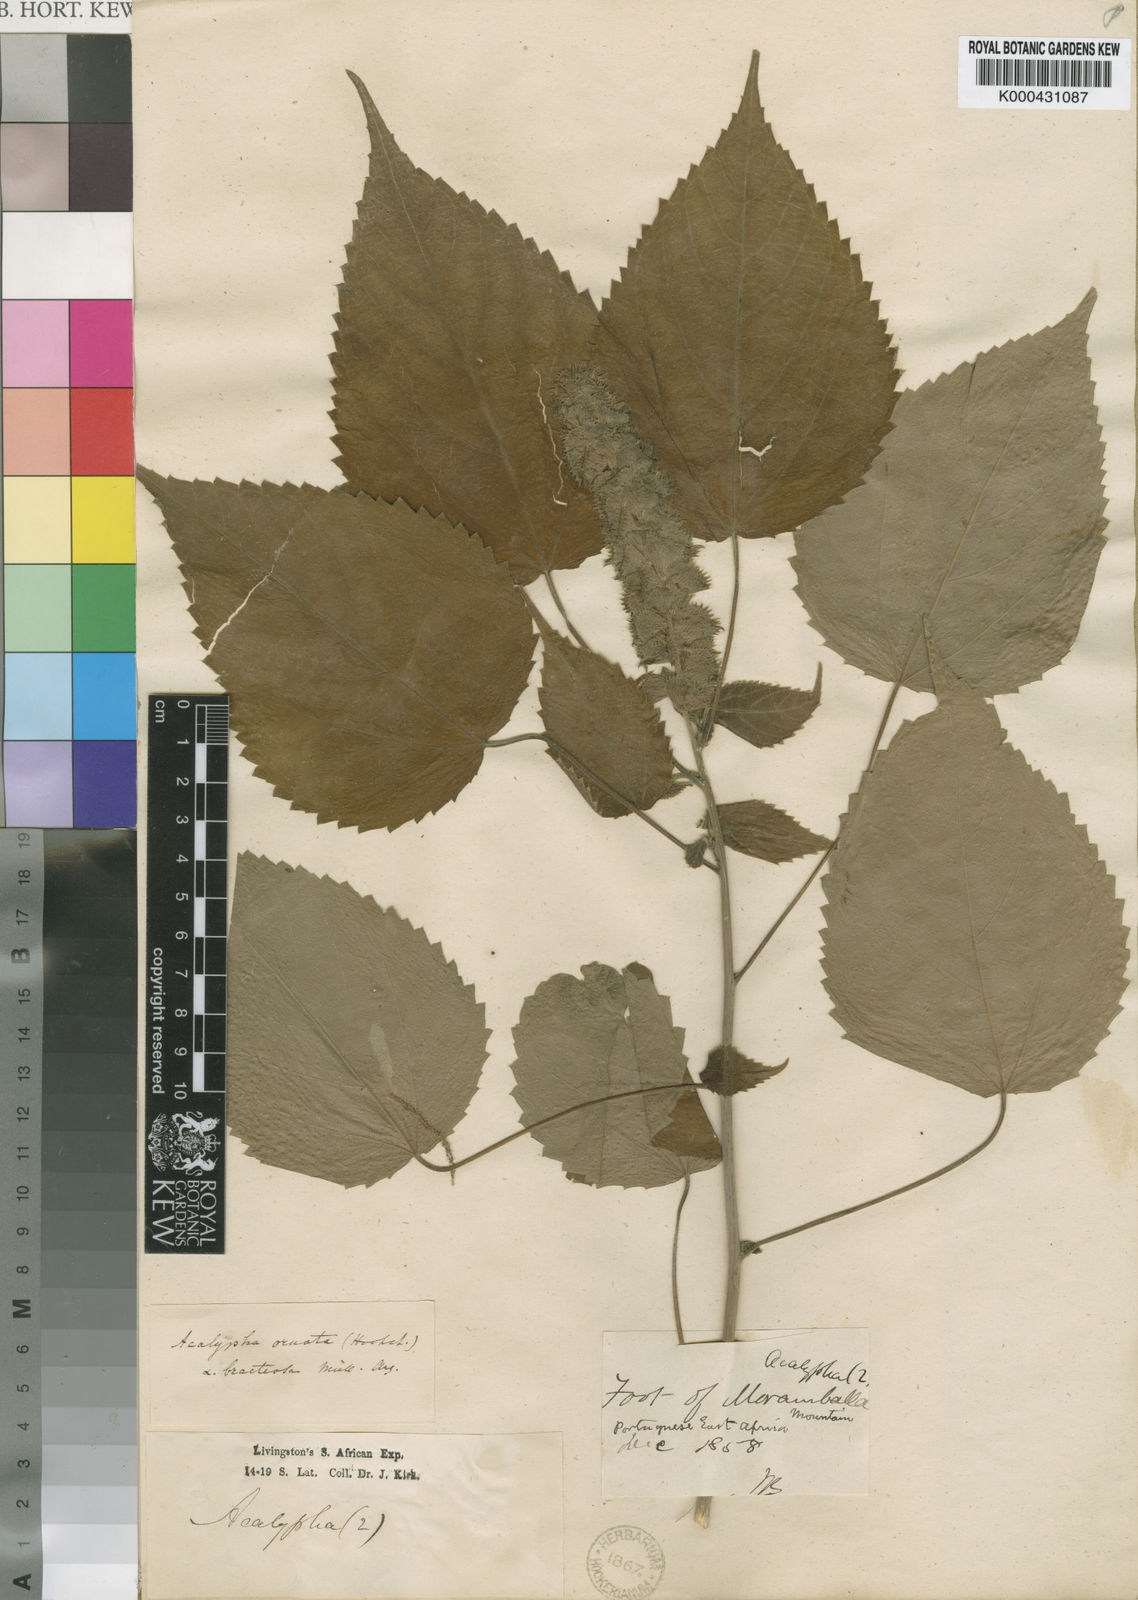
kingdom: Plantae
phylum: Tracheophyta
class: Magnoliopsida
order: Malpighiales
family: Euphorbiaceae
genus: Acalypha
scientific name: Acalypha ornata
